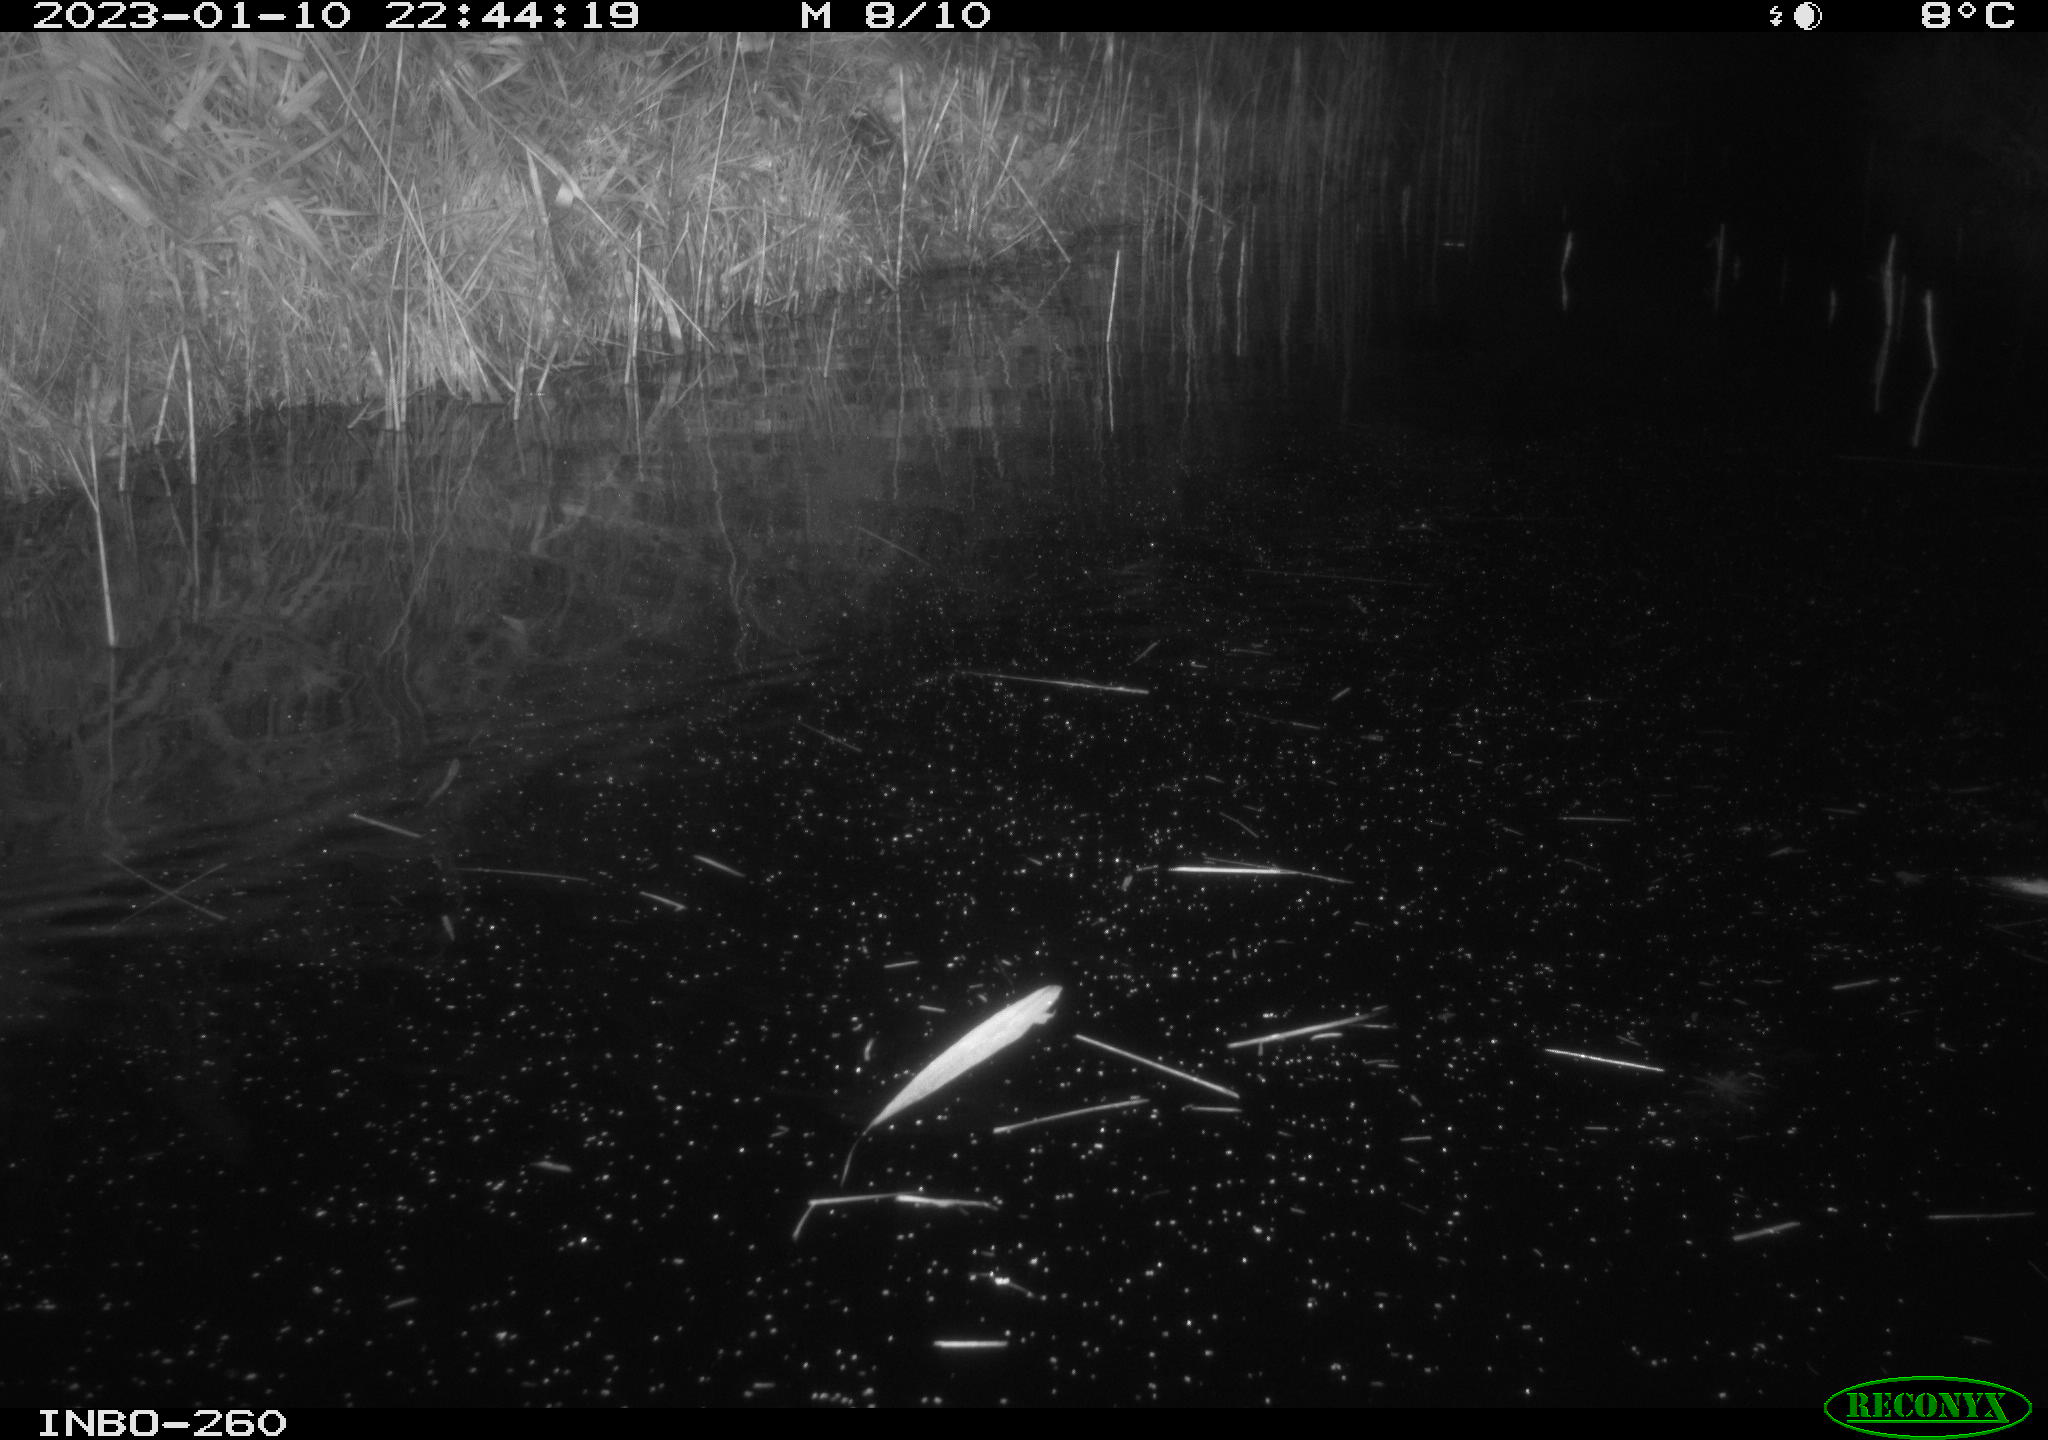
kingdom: Animalia
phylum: Chordata
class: Mammalia
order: Rodentia
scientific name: Rodentia
